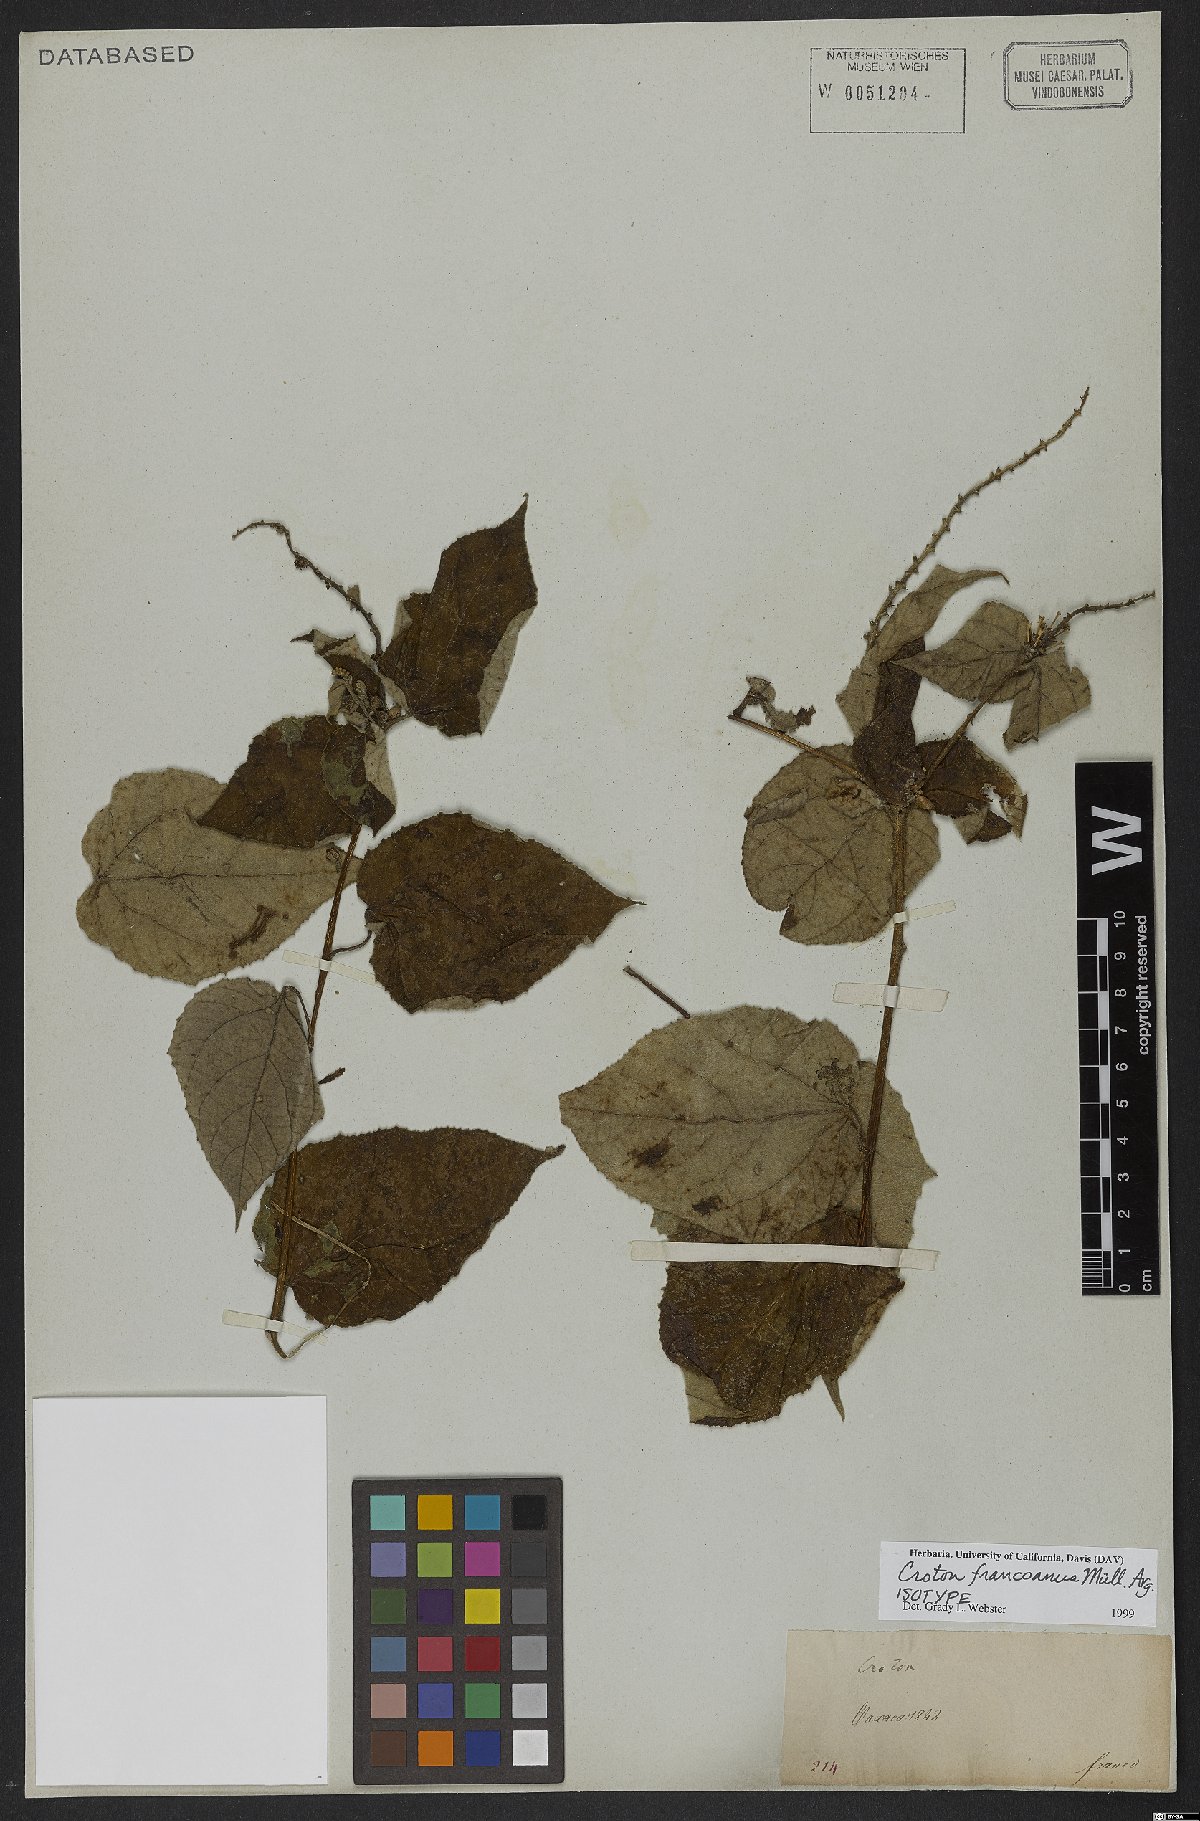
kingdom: Plantae
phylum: Tracheophyta
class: Magnoliopsida
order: Malpighiales
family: Euphorbiaceae
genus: Croton
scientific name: Croton francoanus
